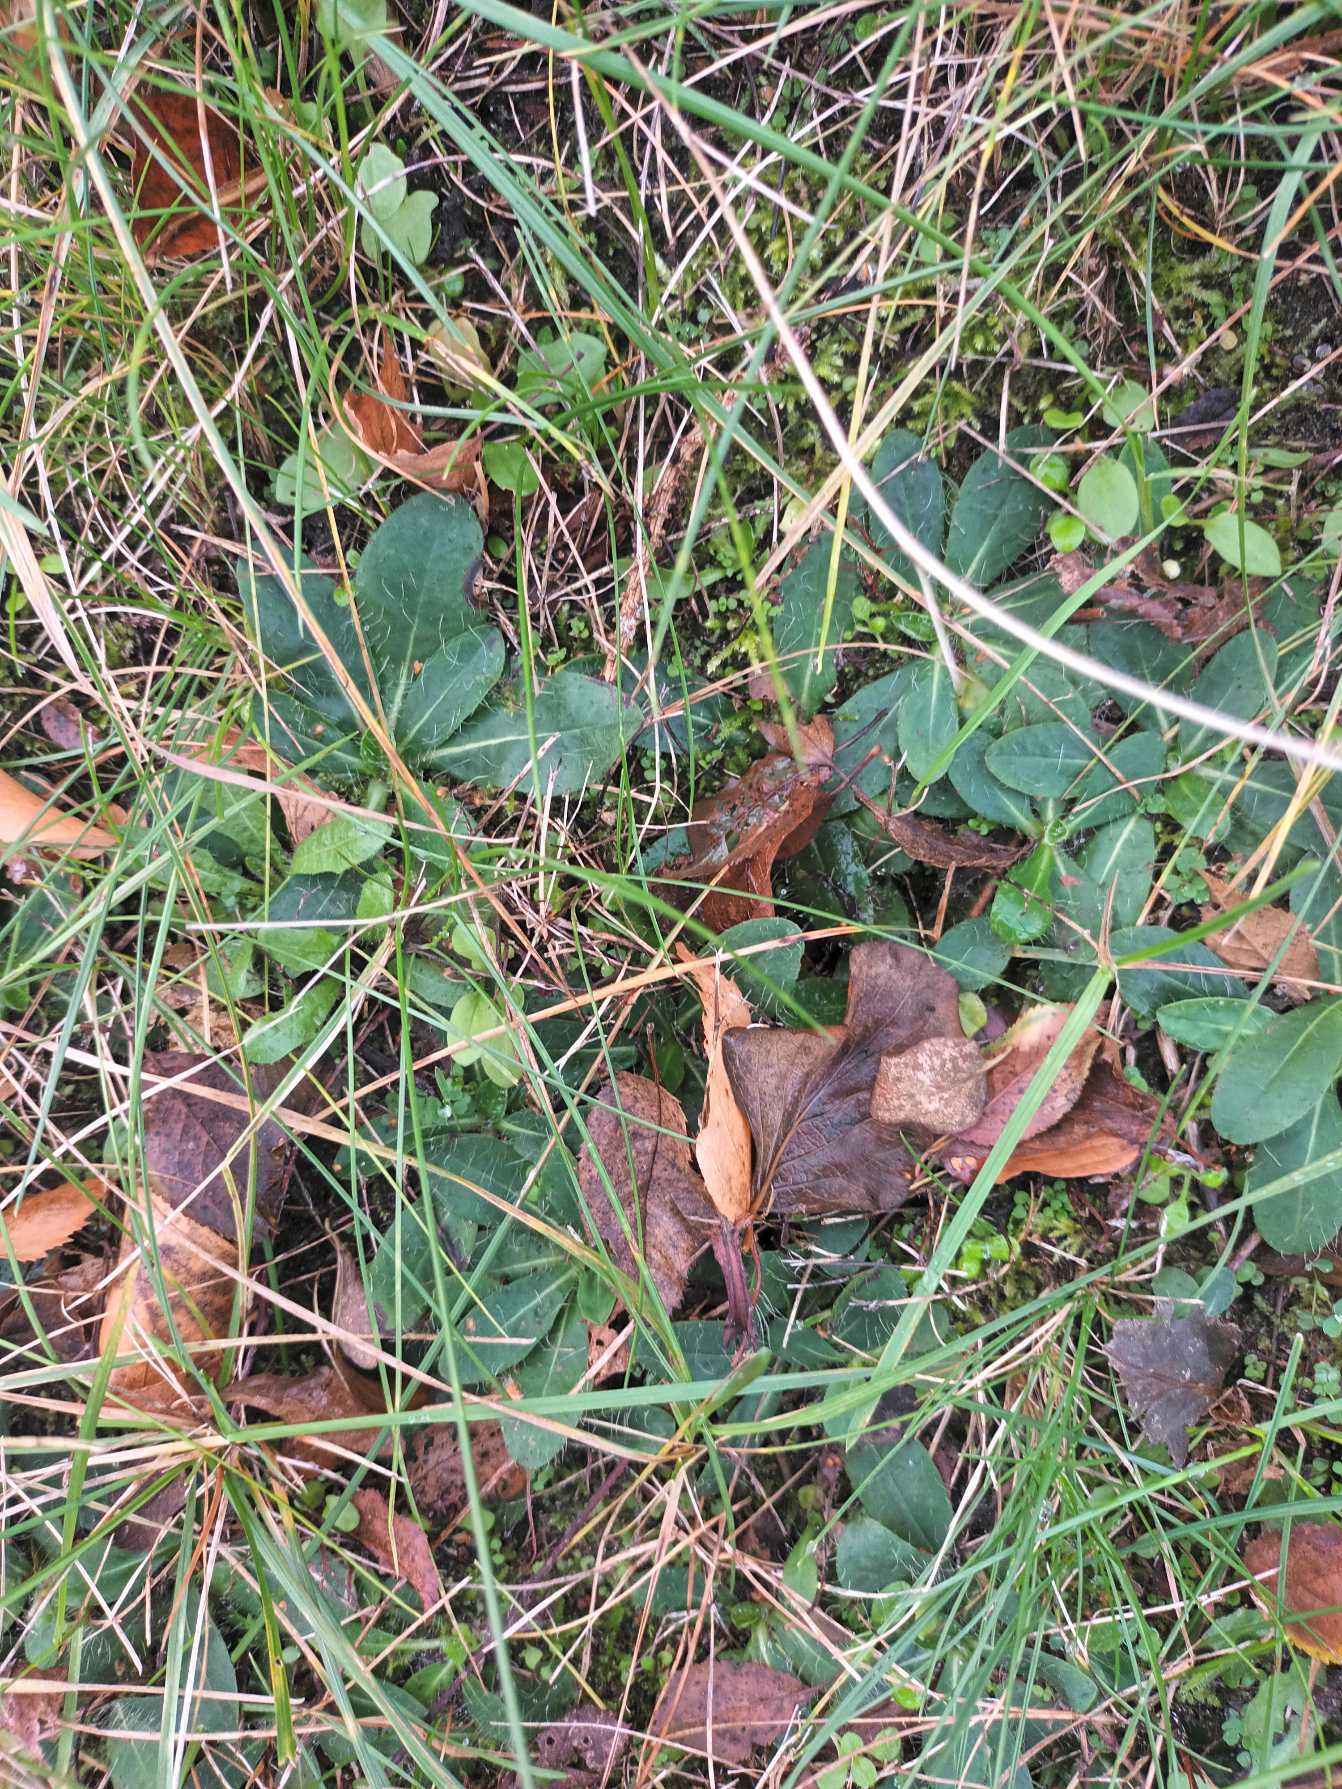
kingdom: Plantae
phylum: Tracheophyta
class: Magnoliopsida
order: Asterales
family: Asteraceae
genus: Pilosella
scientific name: Pilosella officinarum
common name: Håret høgeurt
